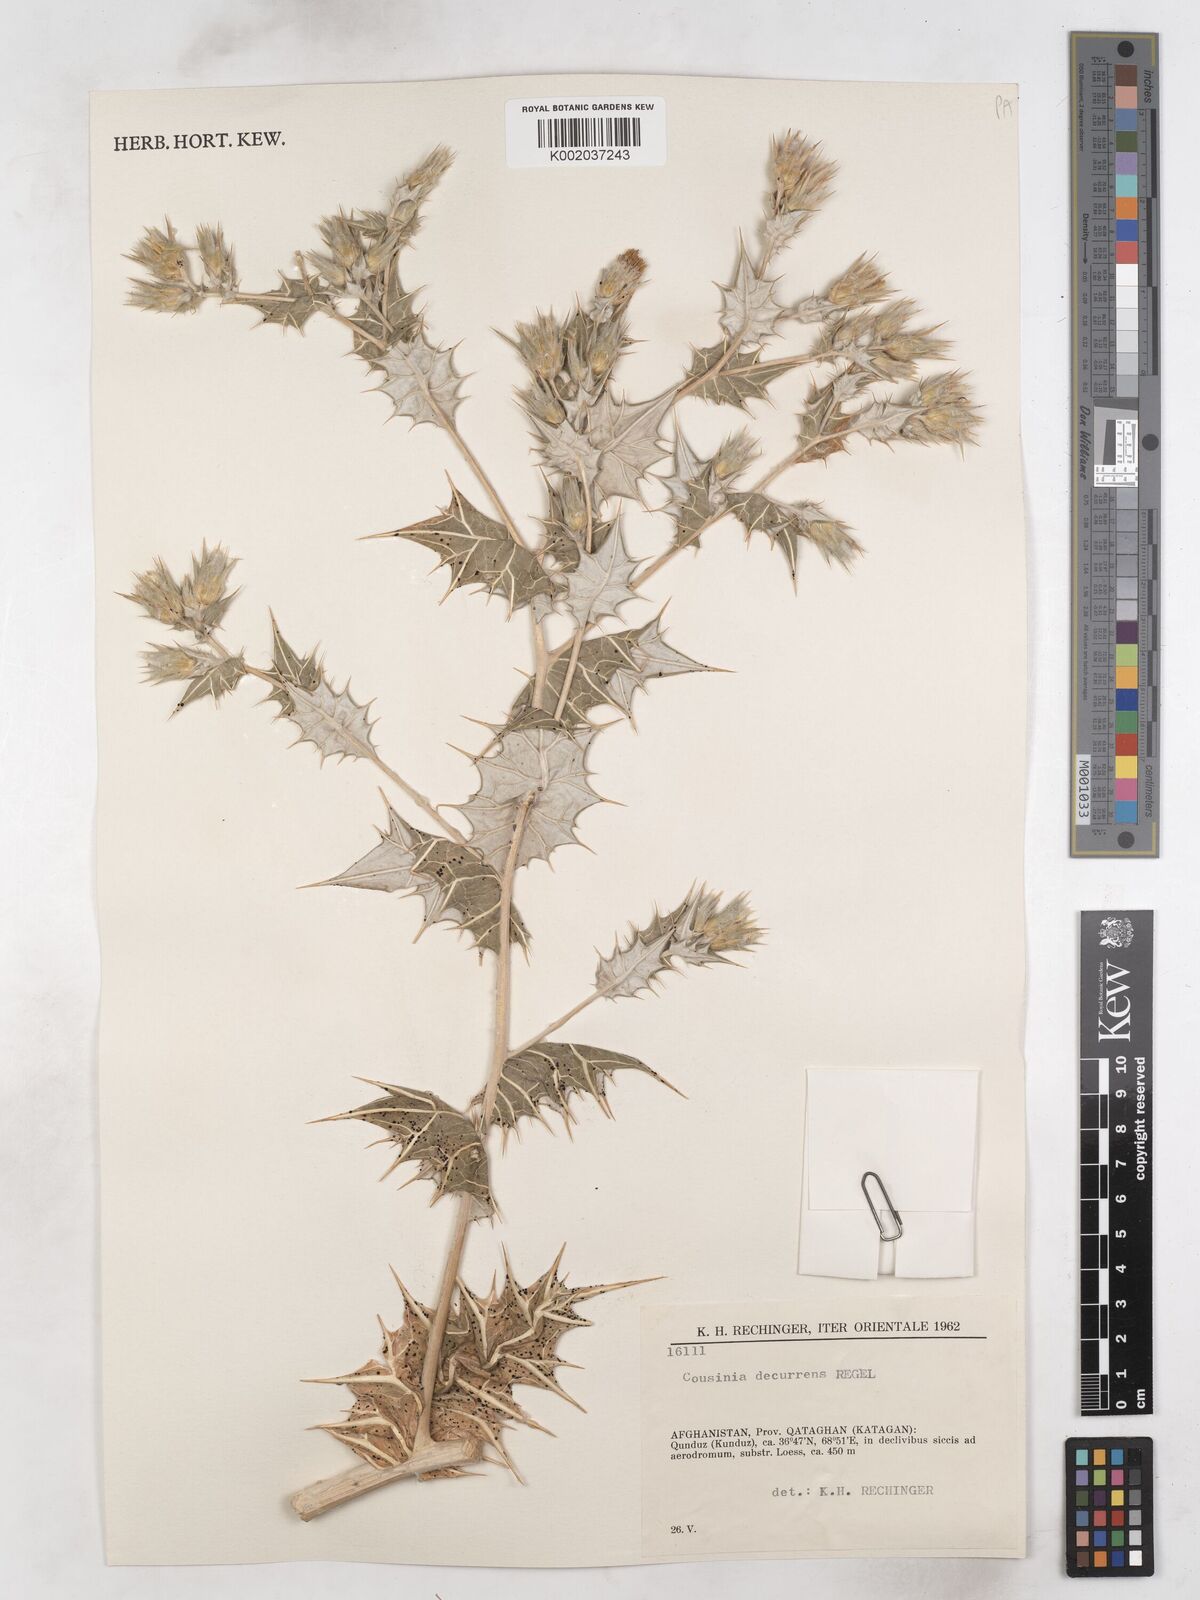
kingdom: Plantae
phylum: Tracheophyta
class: Magnoliopsida
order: Asterales
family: Asteraceae
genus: Cousinia
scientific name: Cousinia decurrens
